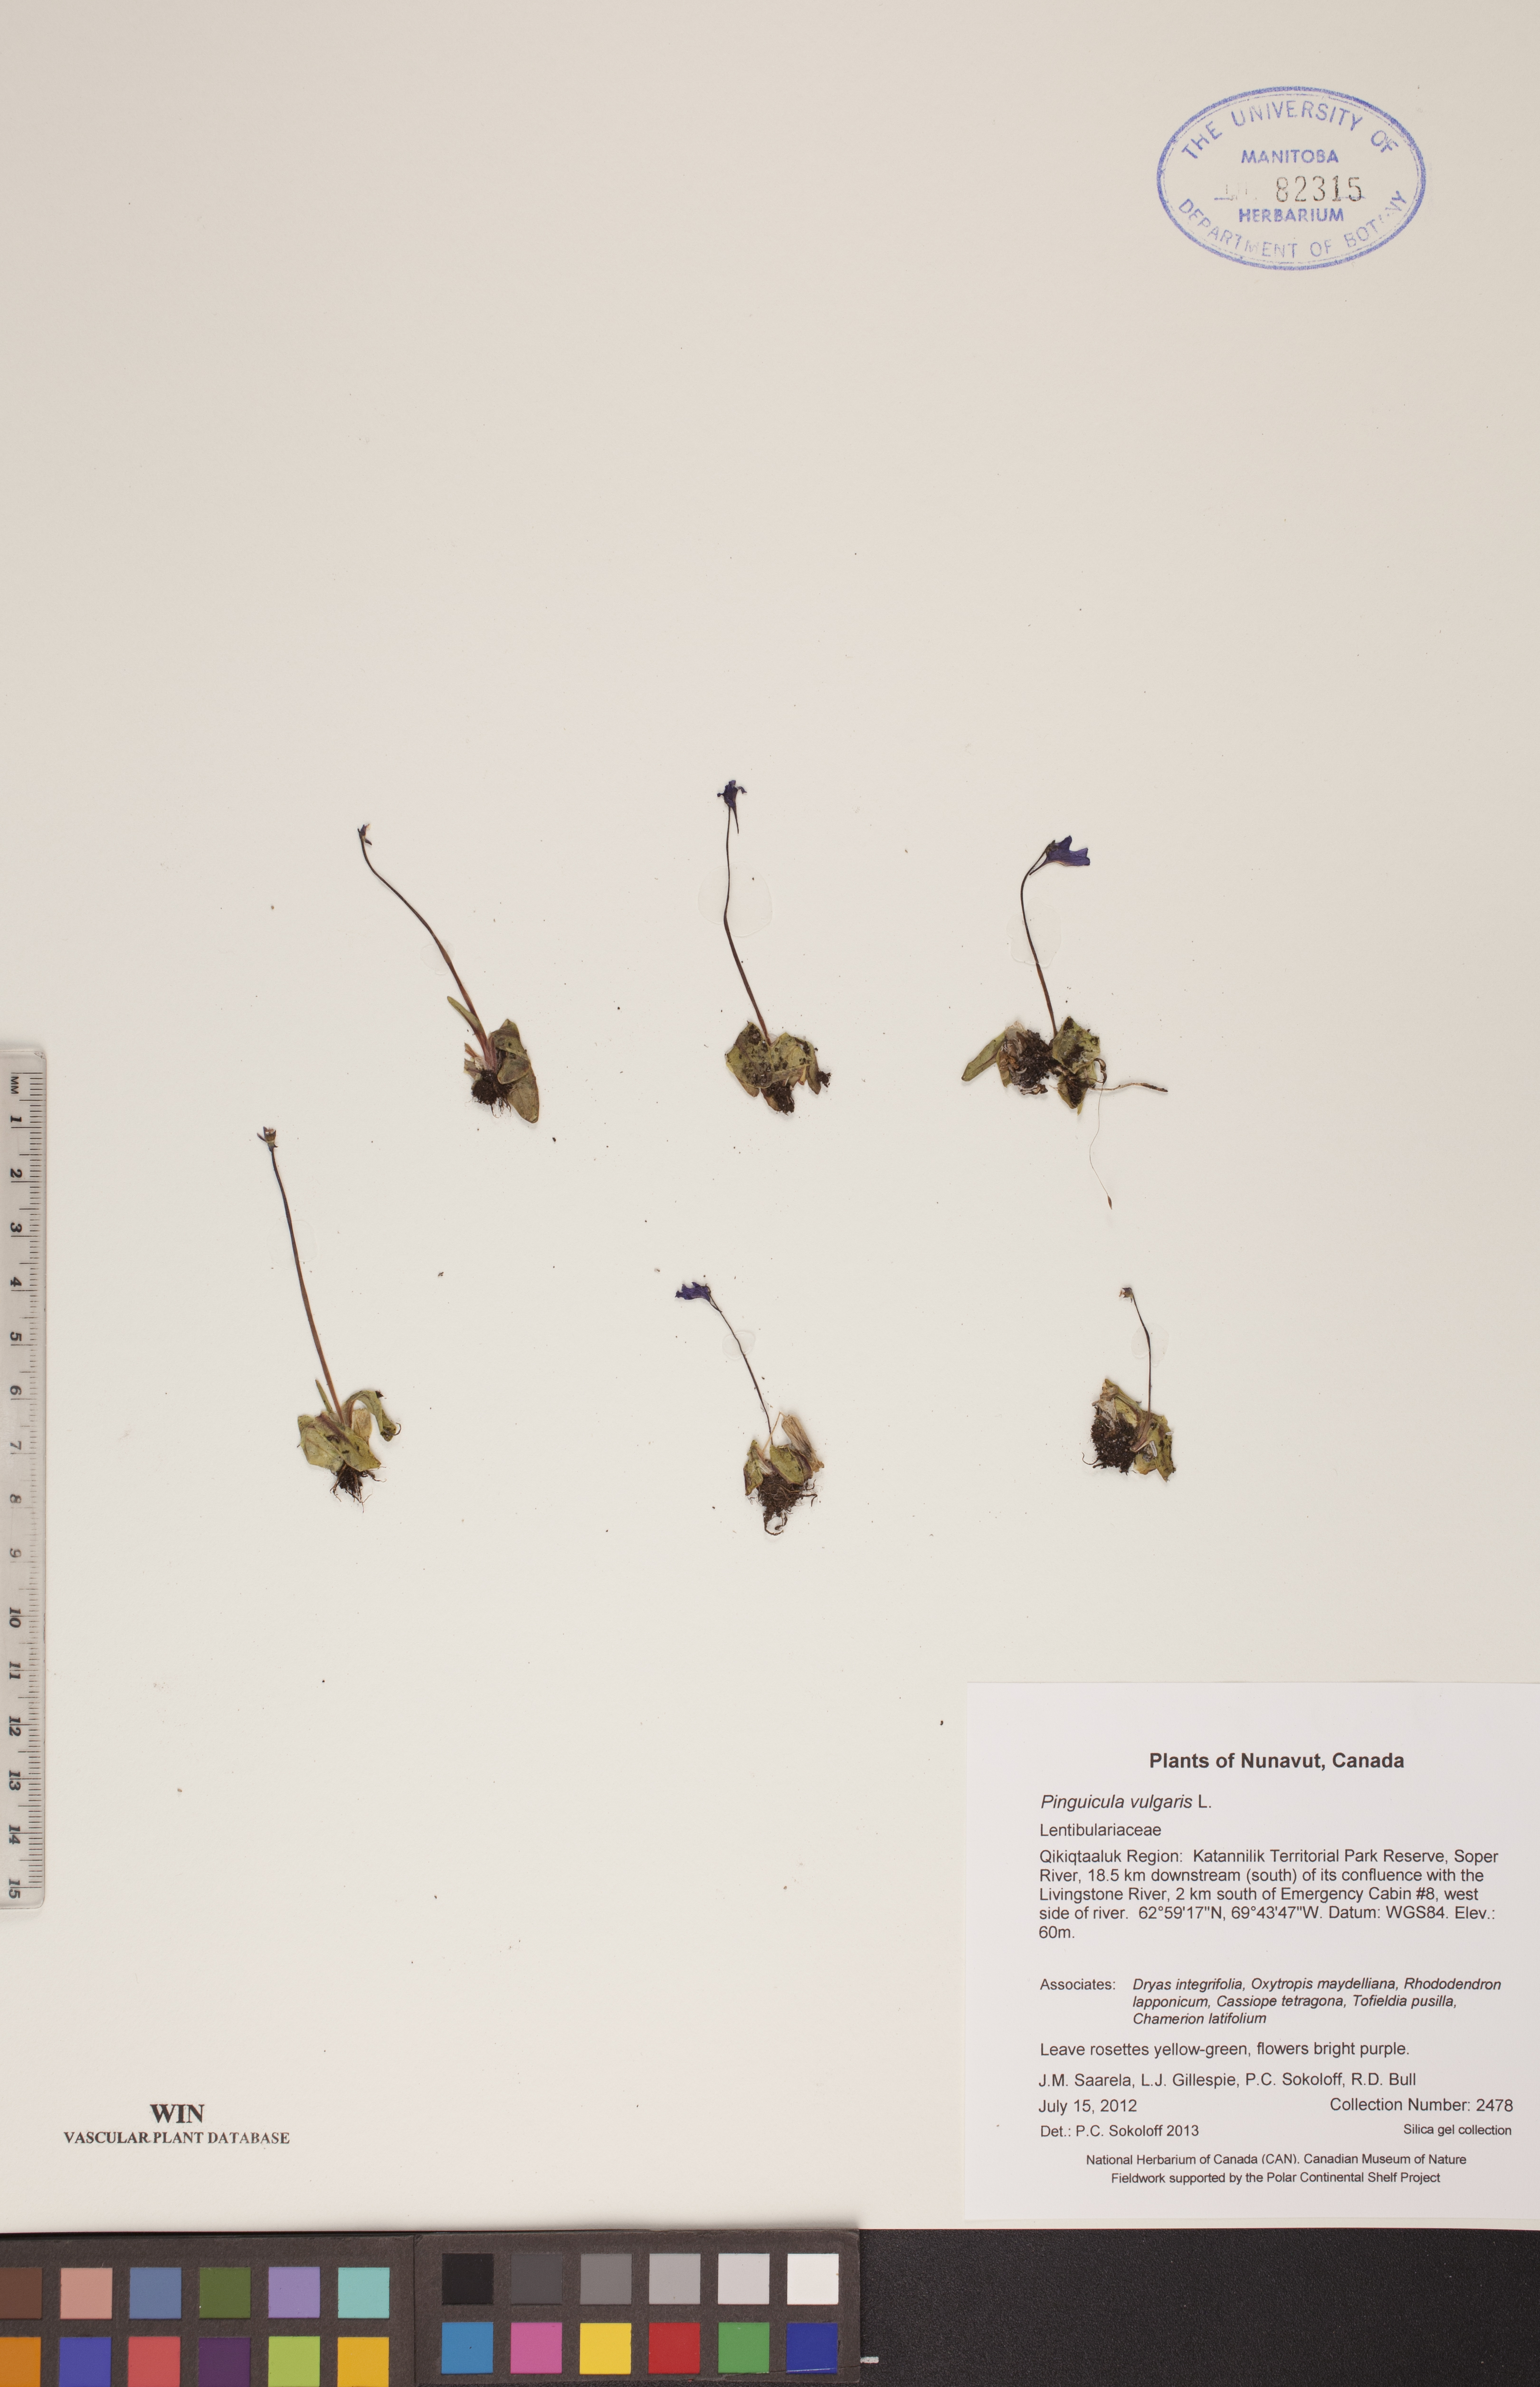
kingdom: Plantae
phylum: Tracheophyta
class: Magnoliopsida
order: Lamiales
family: Lentibulariaceae
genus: Pinguicula
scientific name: Pinguicula vulgaris
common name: Common butterwort
